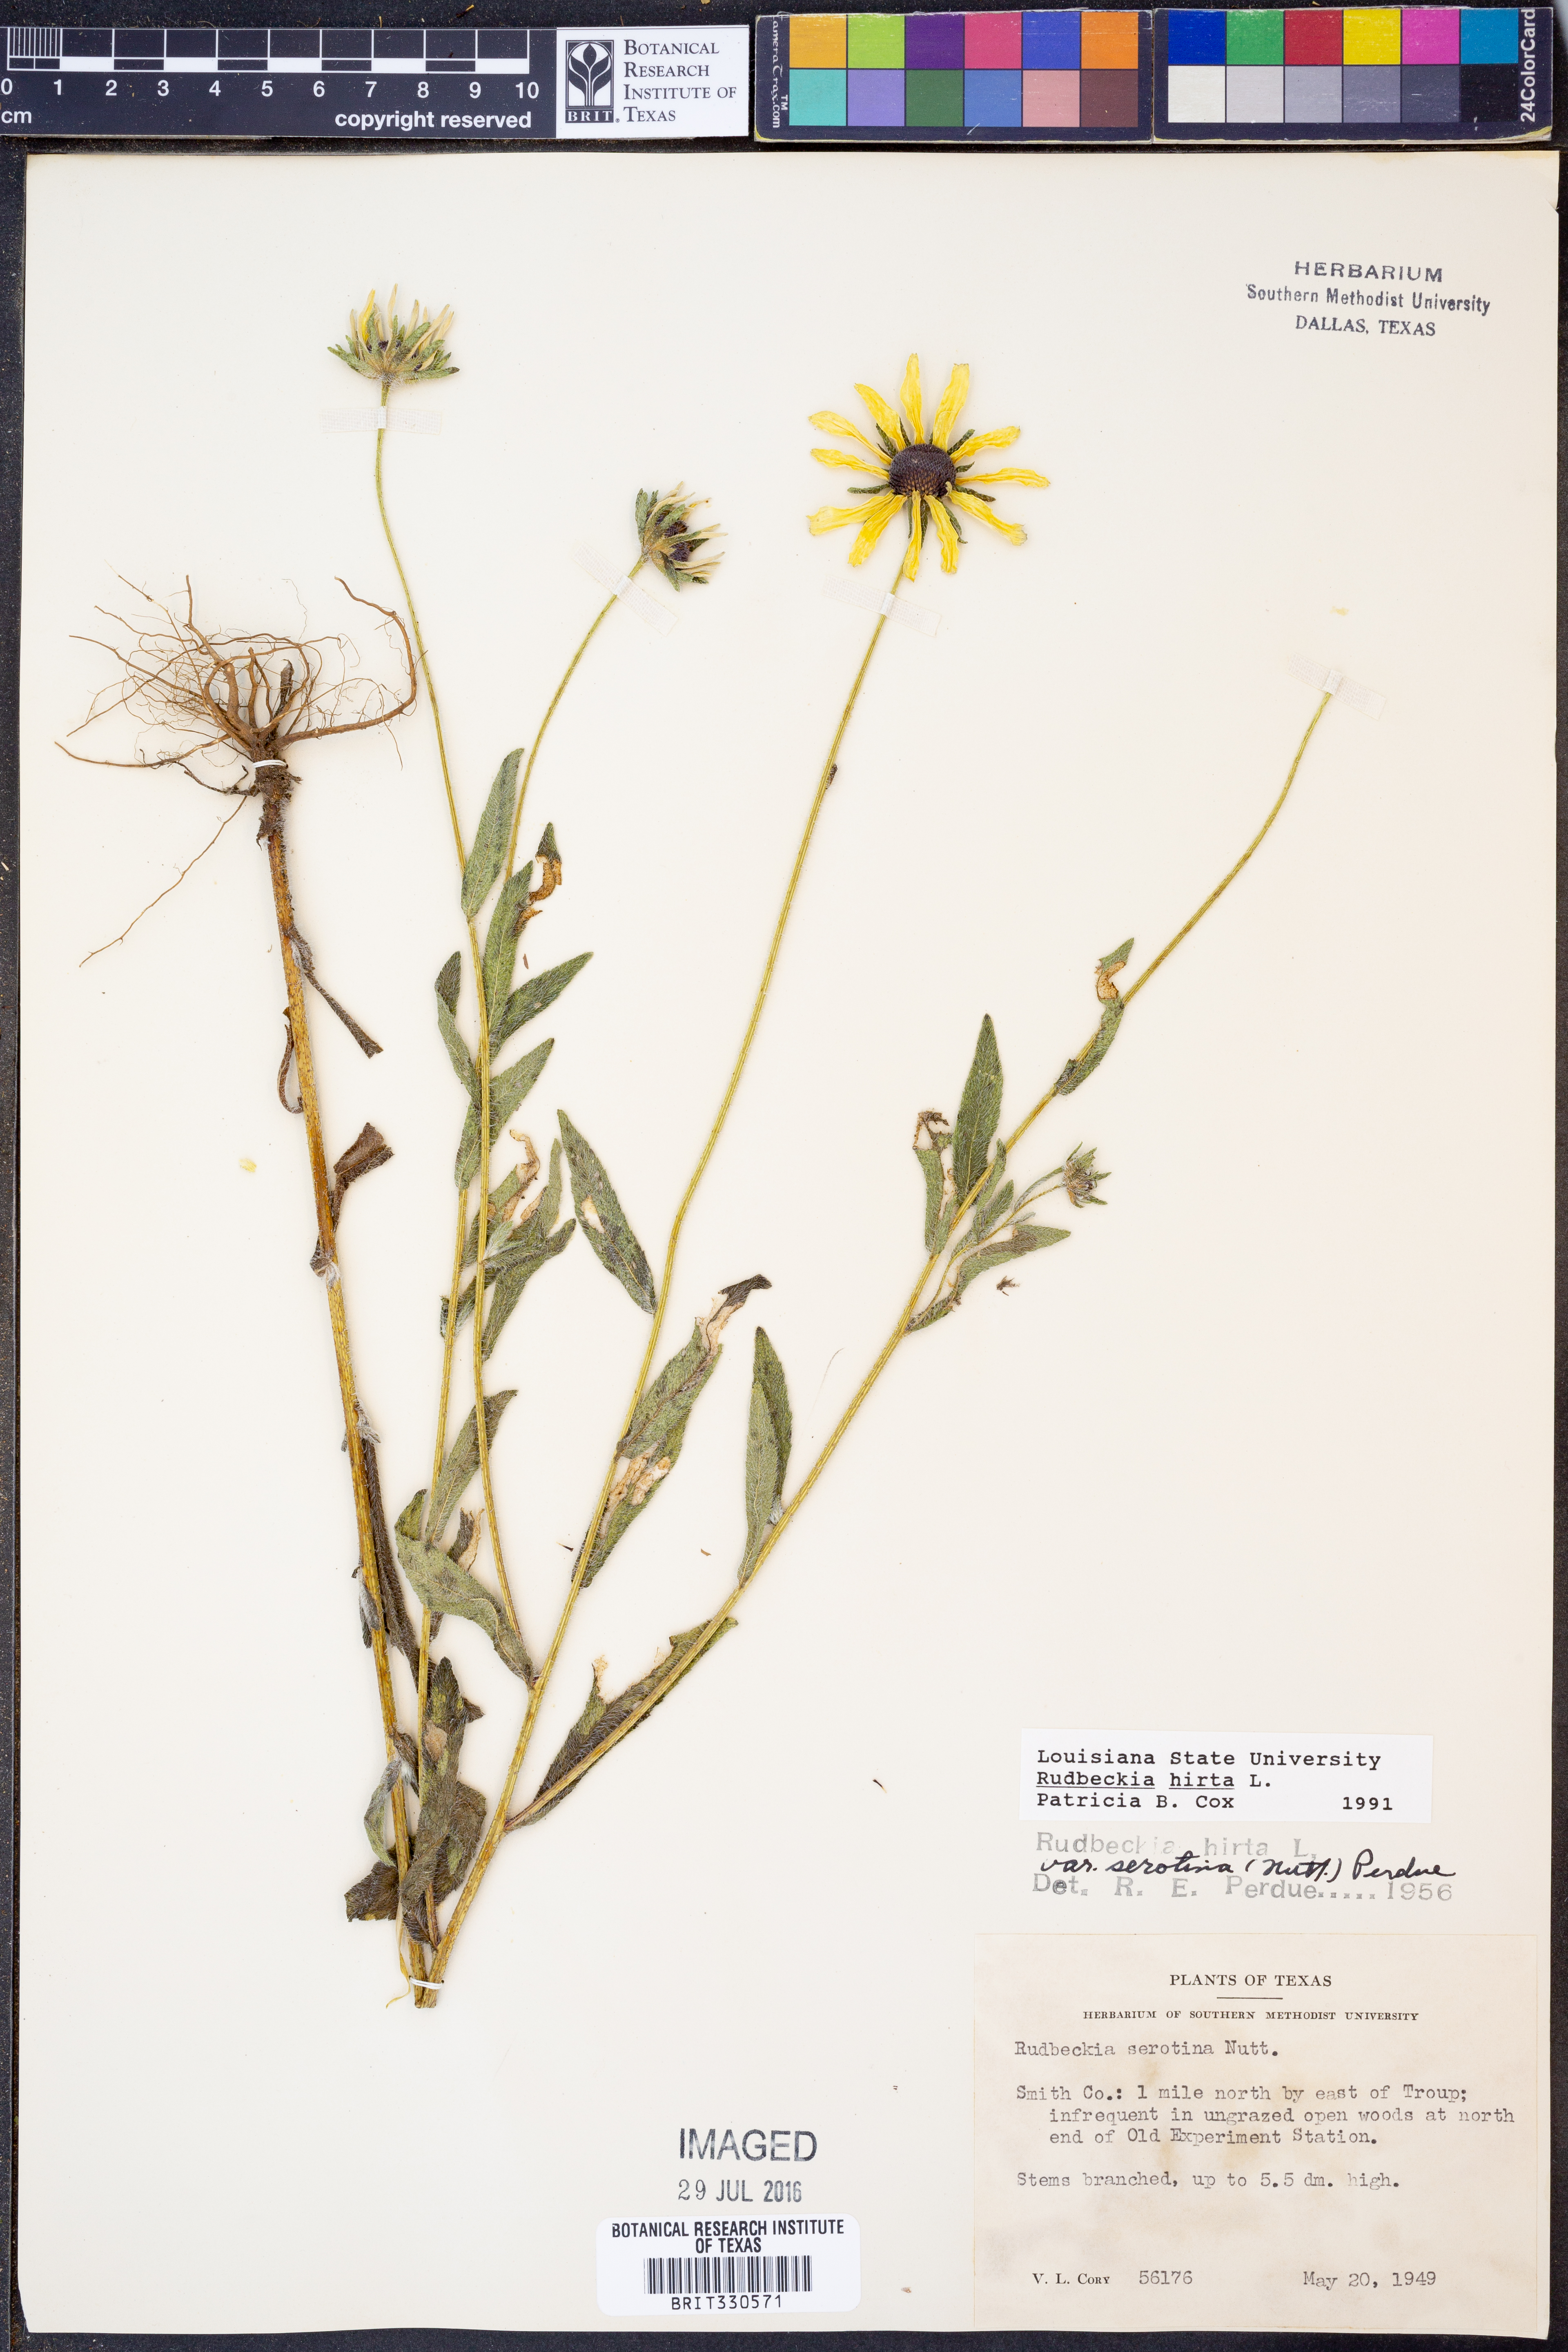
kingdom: Plantae
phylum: Tracheophyta
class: Magnoliopsida
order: Asterales
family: Asteraceae
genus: Rudbeckia
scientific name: Rudbeckia hirta
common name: Black-eyed-susan
